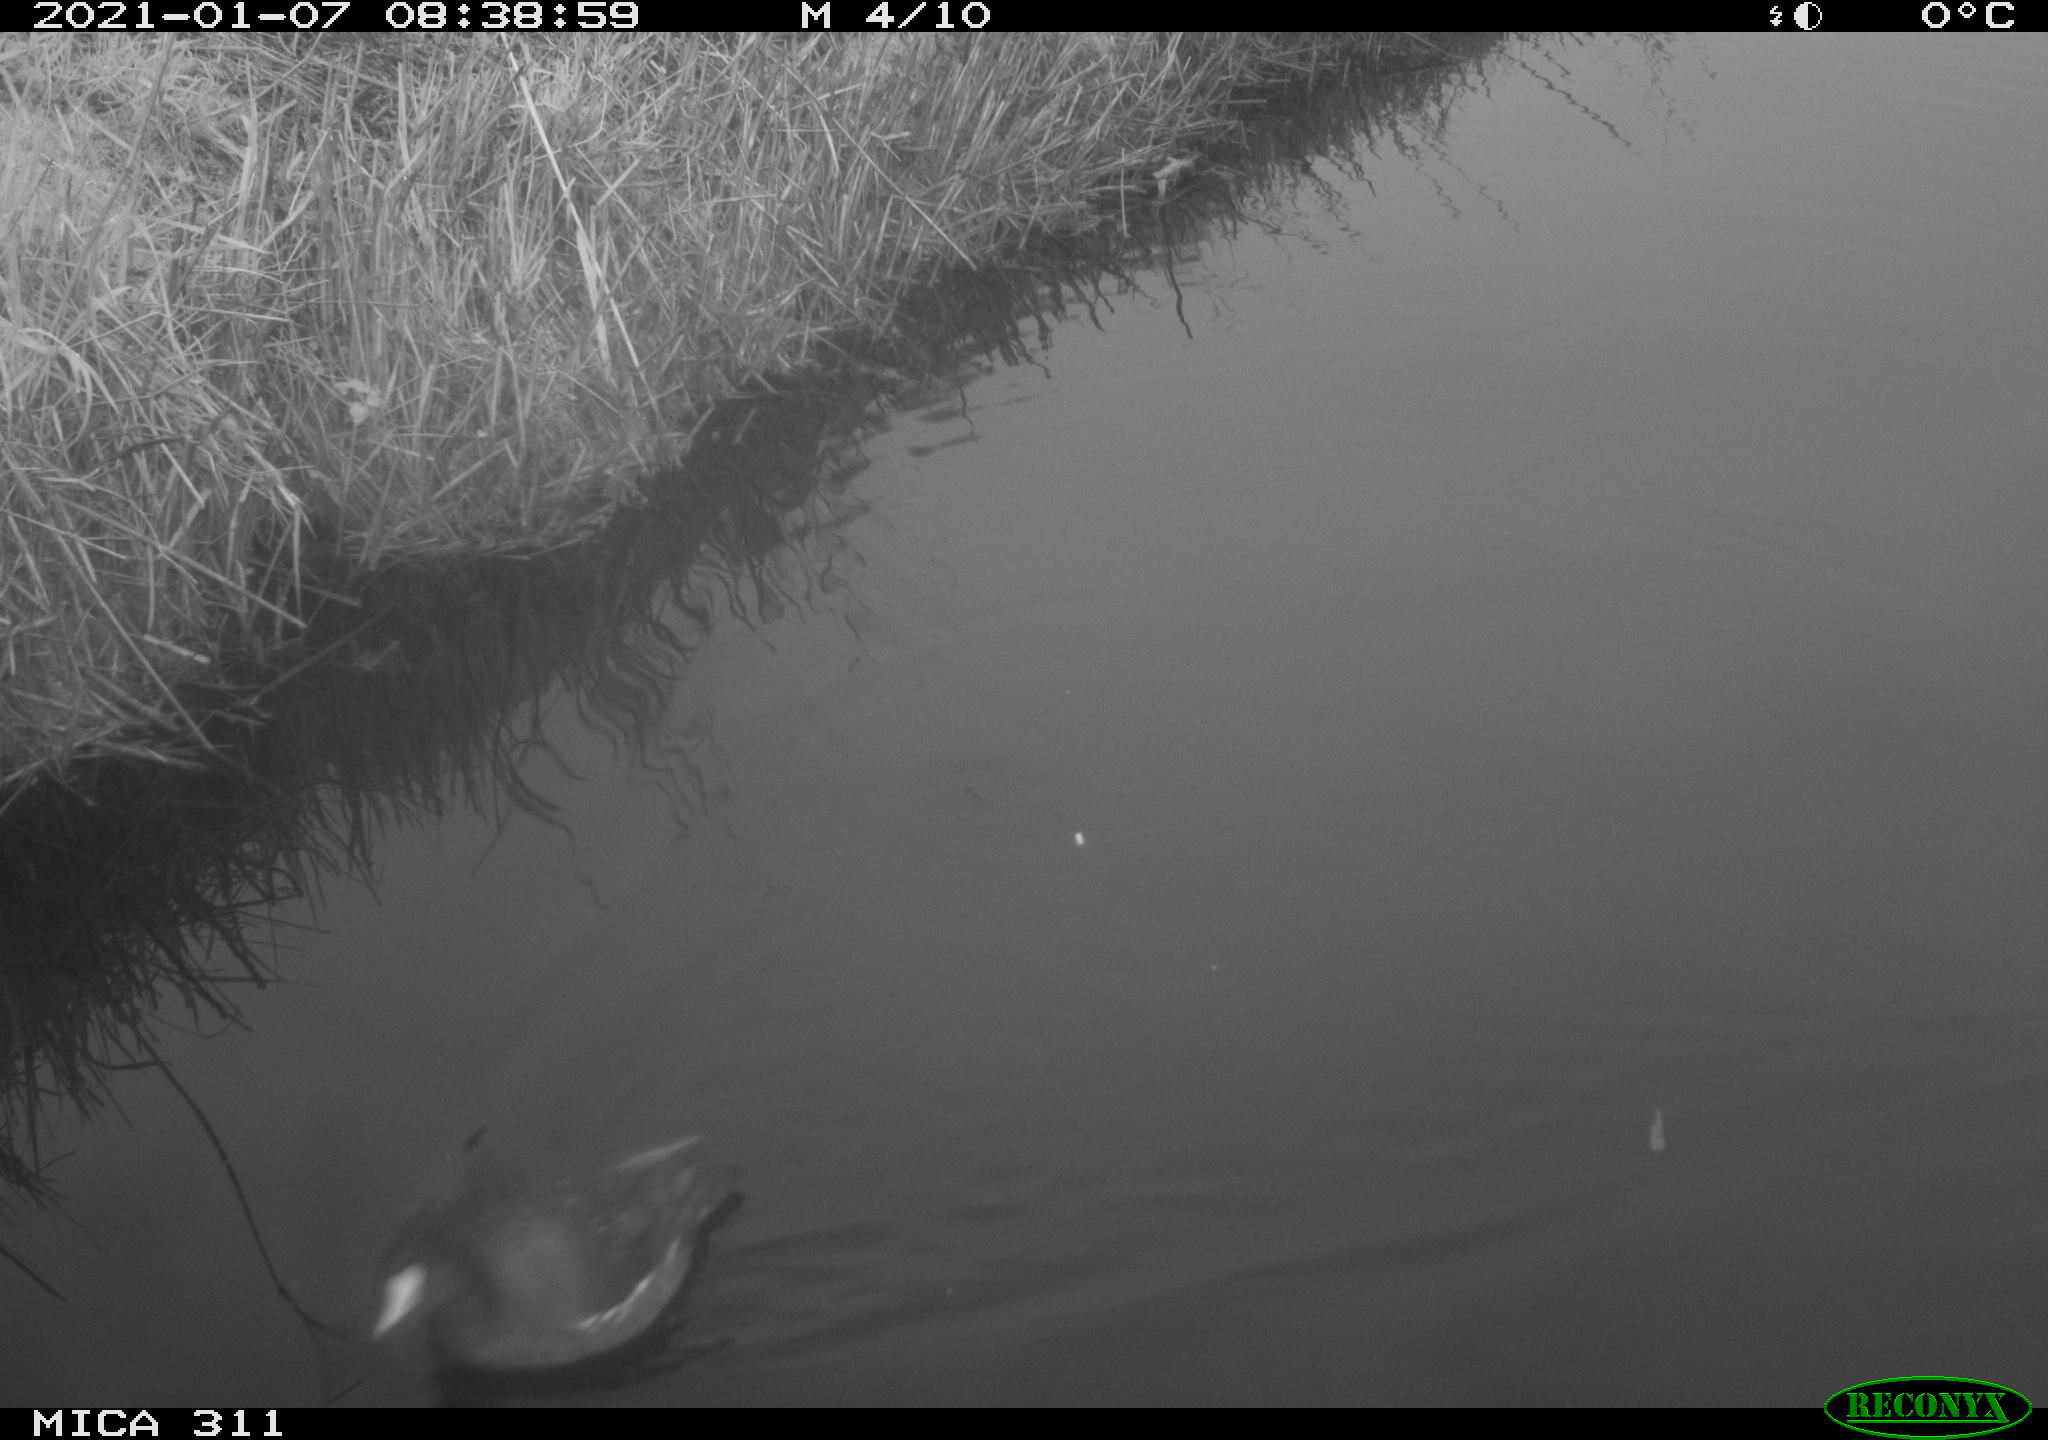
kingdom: Animalia
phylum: Chordata
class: Aves
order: Gruiformes
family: Rallidae
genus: Gallinula
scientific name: Gallinula chloropus
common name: Common moorhen
